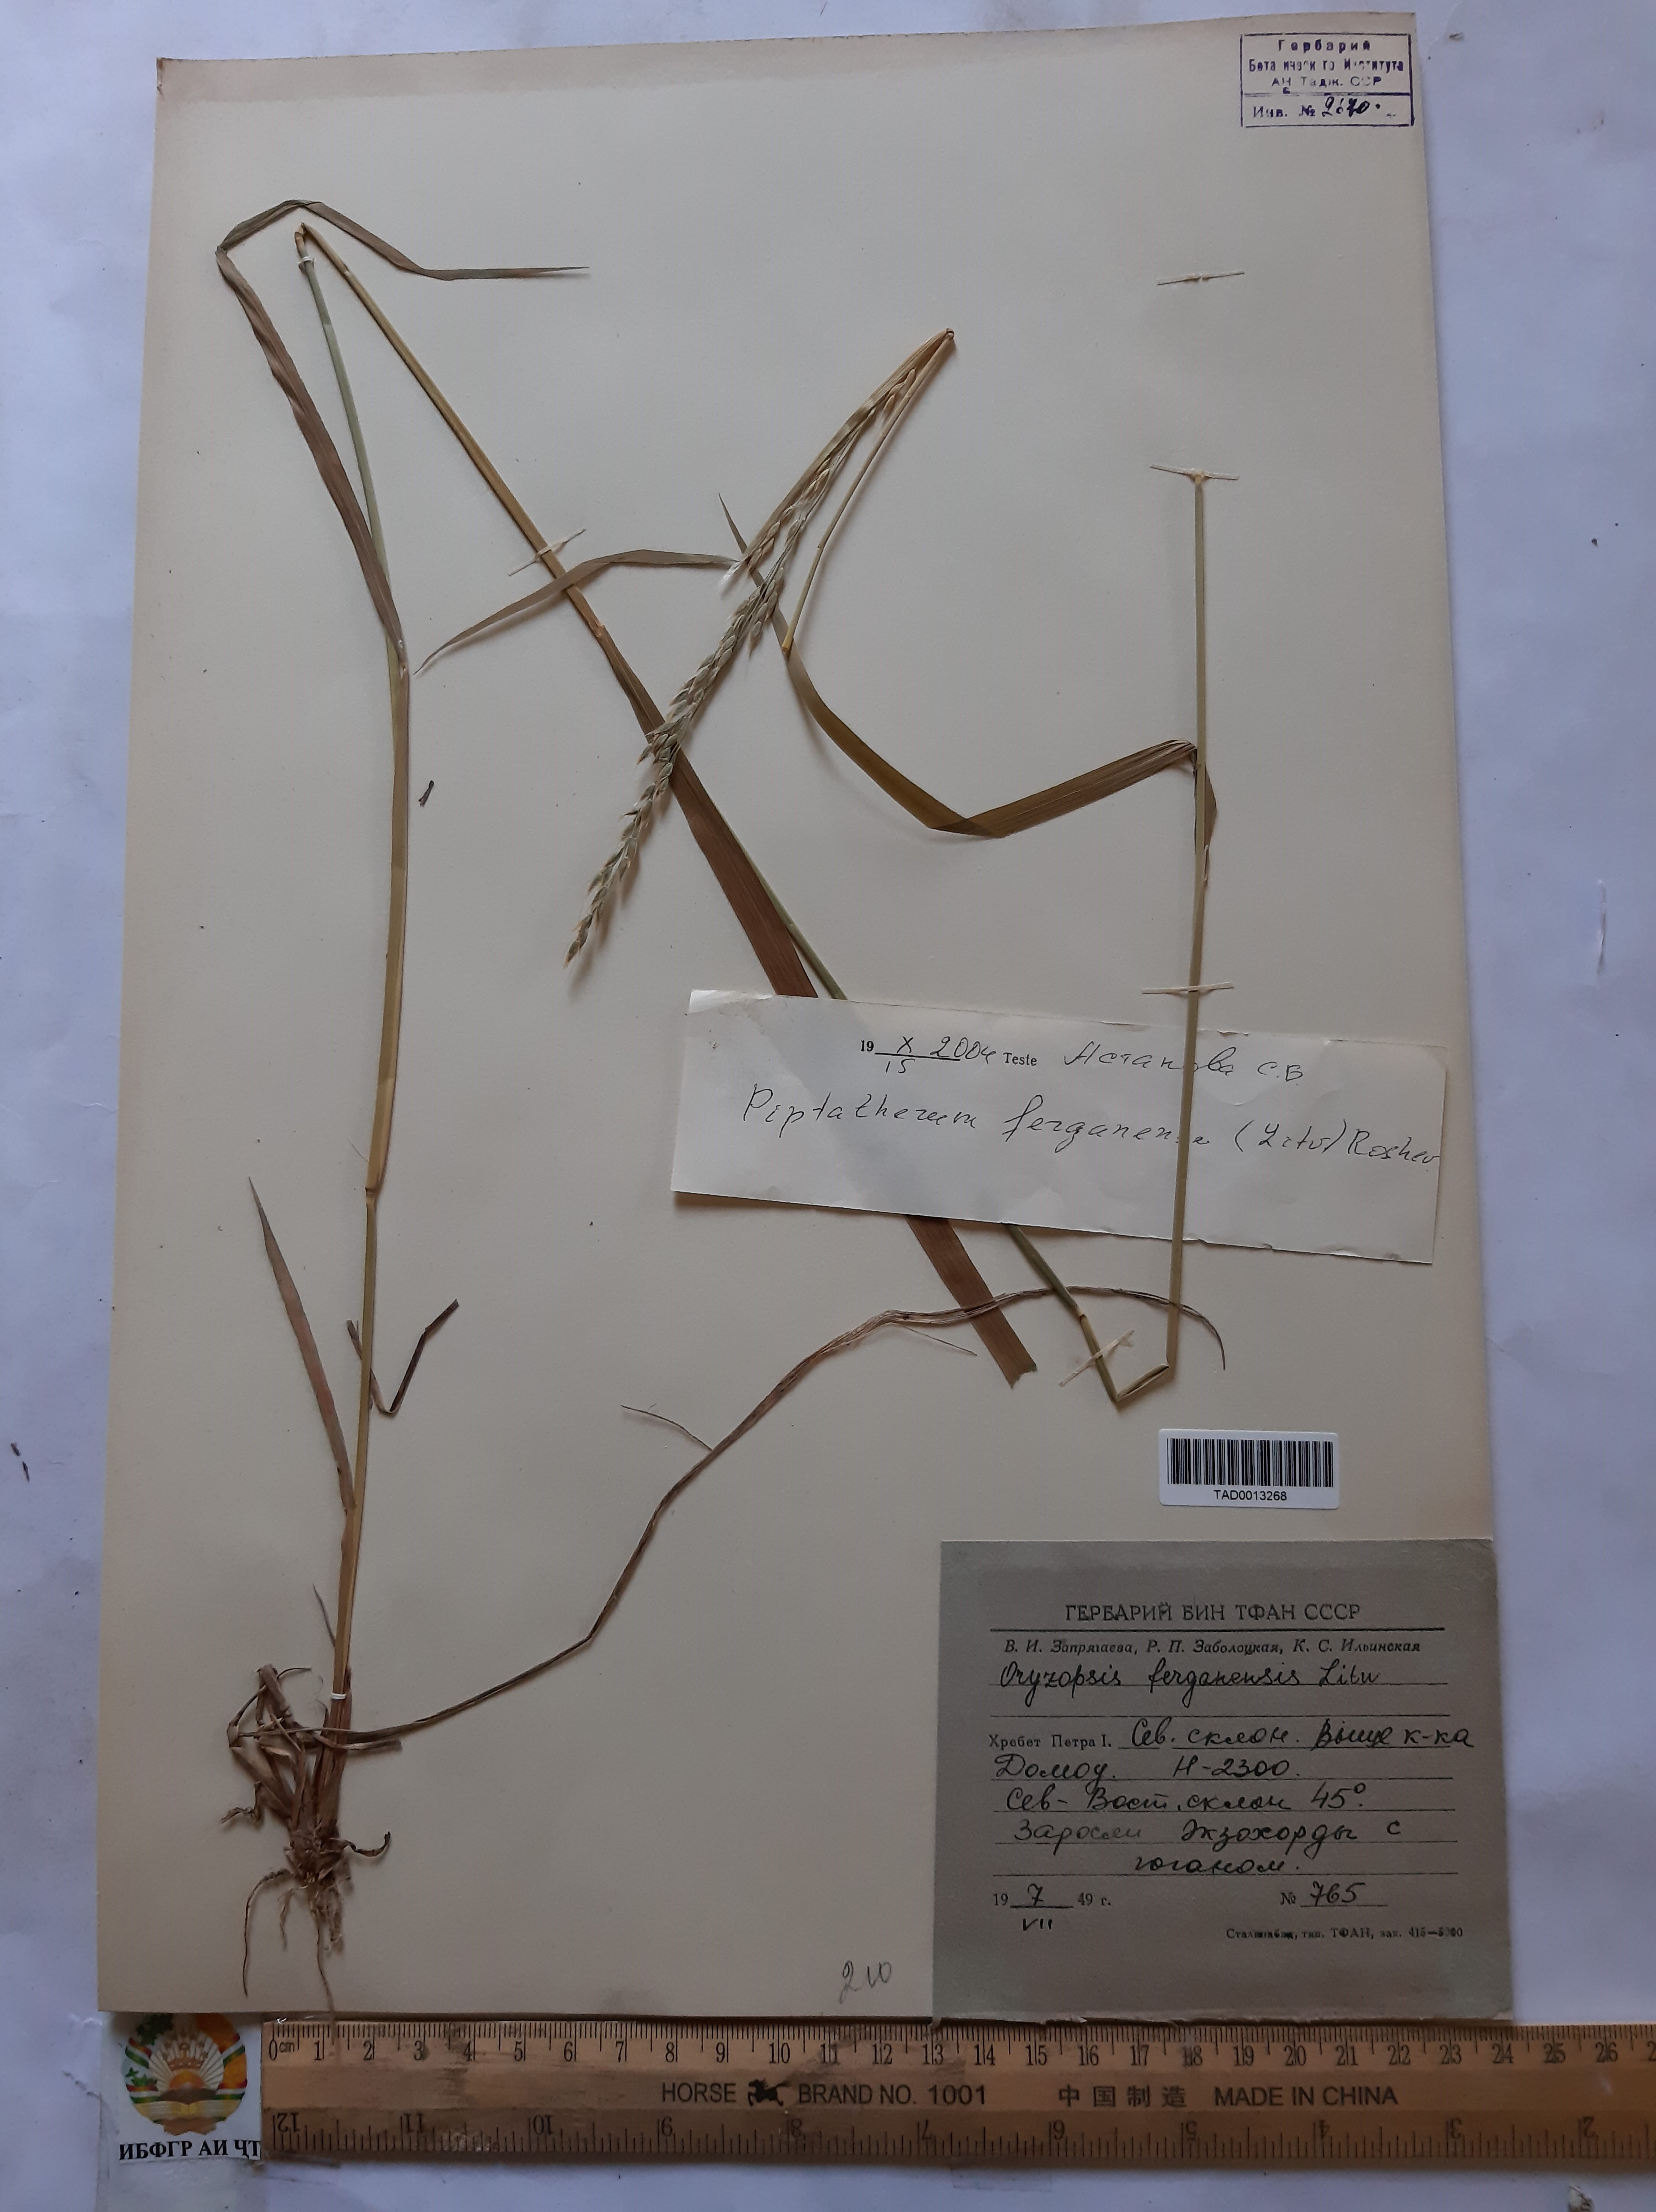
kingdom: Plantae
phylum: Tracheophyta
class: Liliopsida
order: Poales
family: Poaceae
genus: Piptatherum
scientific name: Piptatherum ferganense
